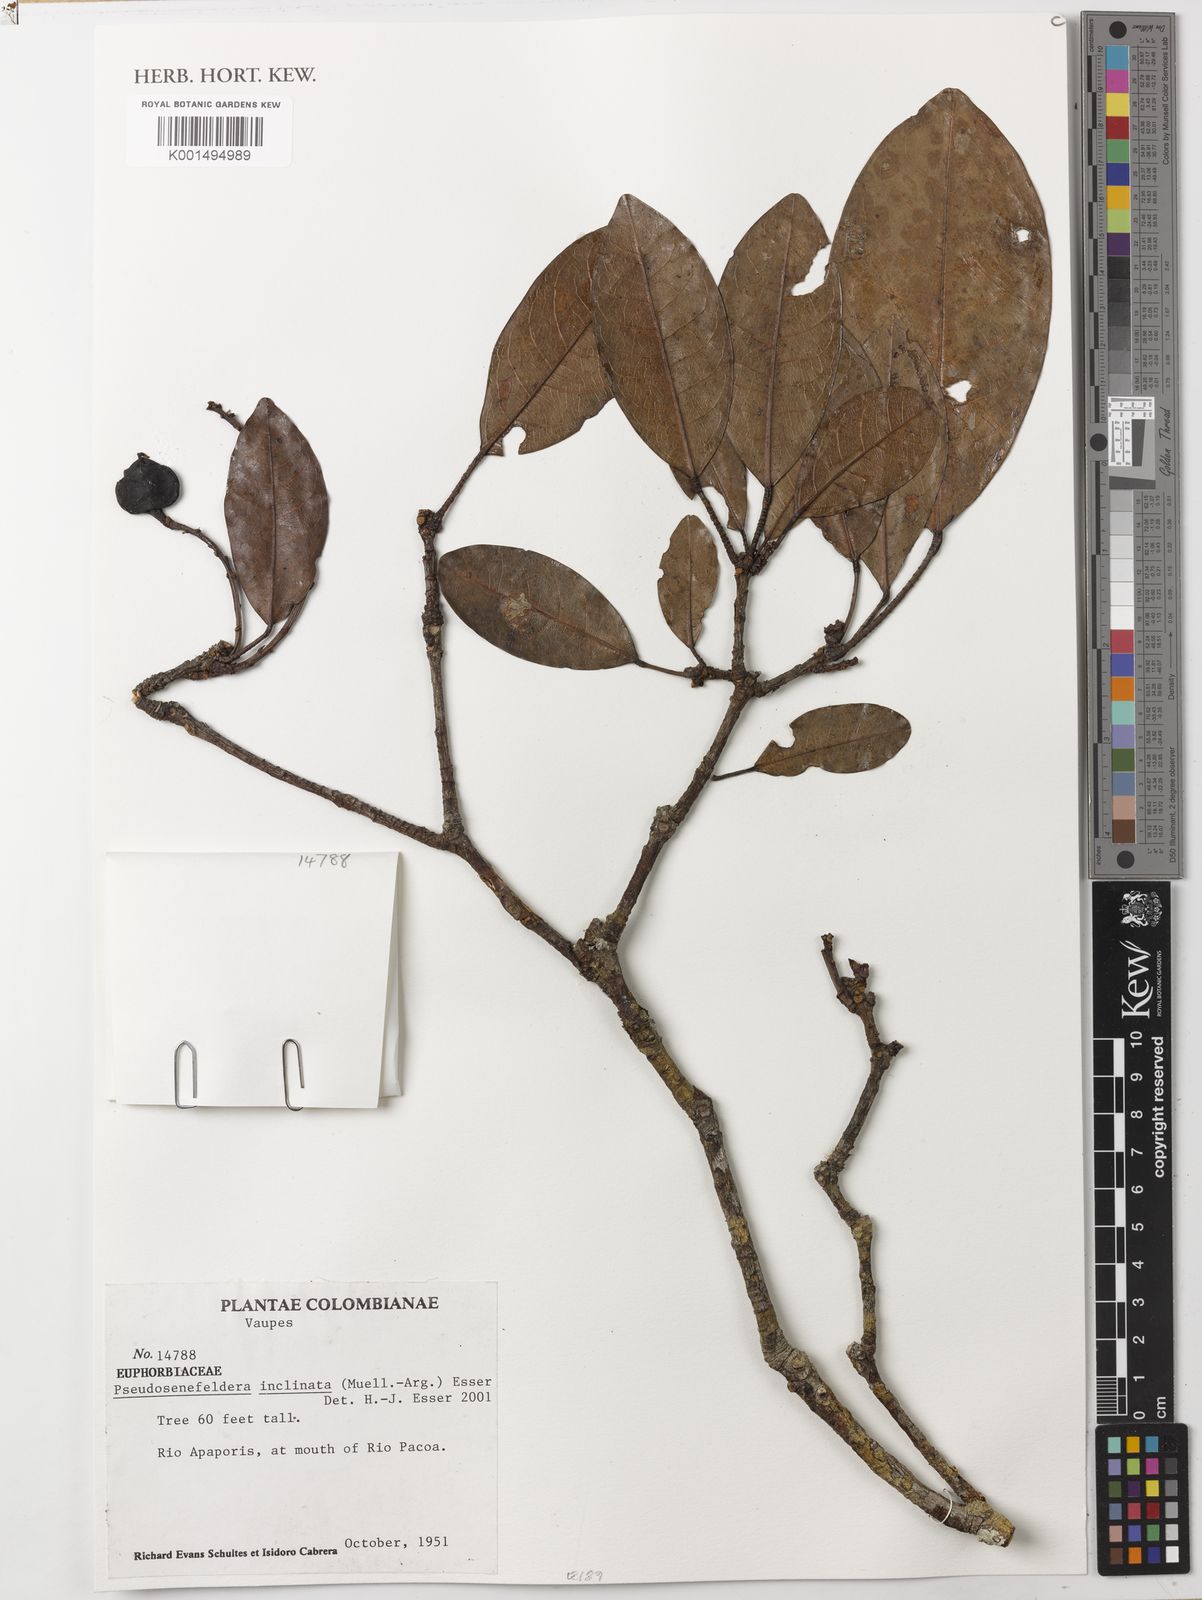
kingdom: Plantae
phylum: Tracheophyta
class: Magnoliopsida
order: Malpighiales
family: Euphorbiaceae
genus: Pseudosenefeldera
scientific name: Pseudosenefeldera inclinata
